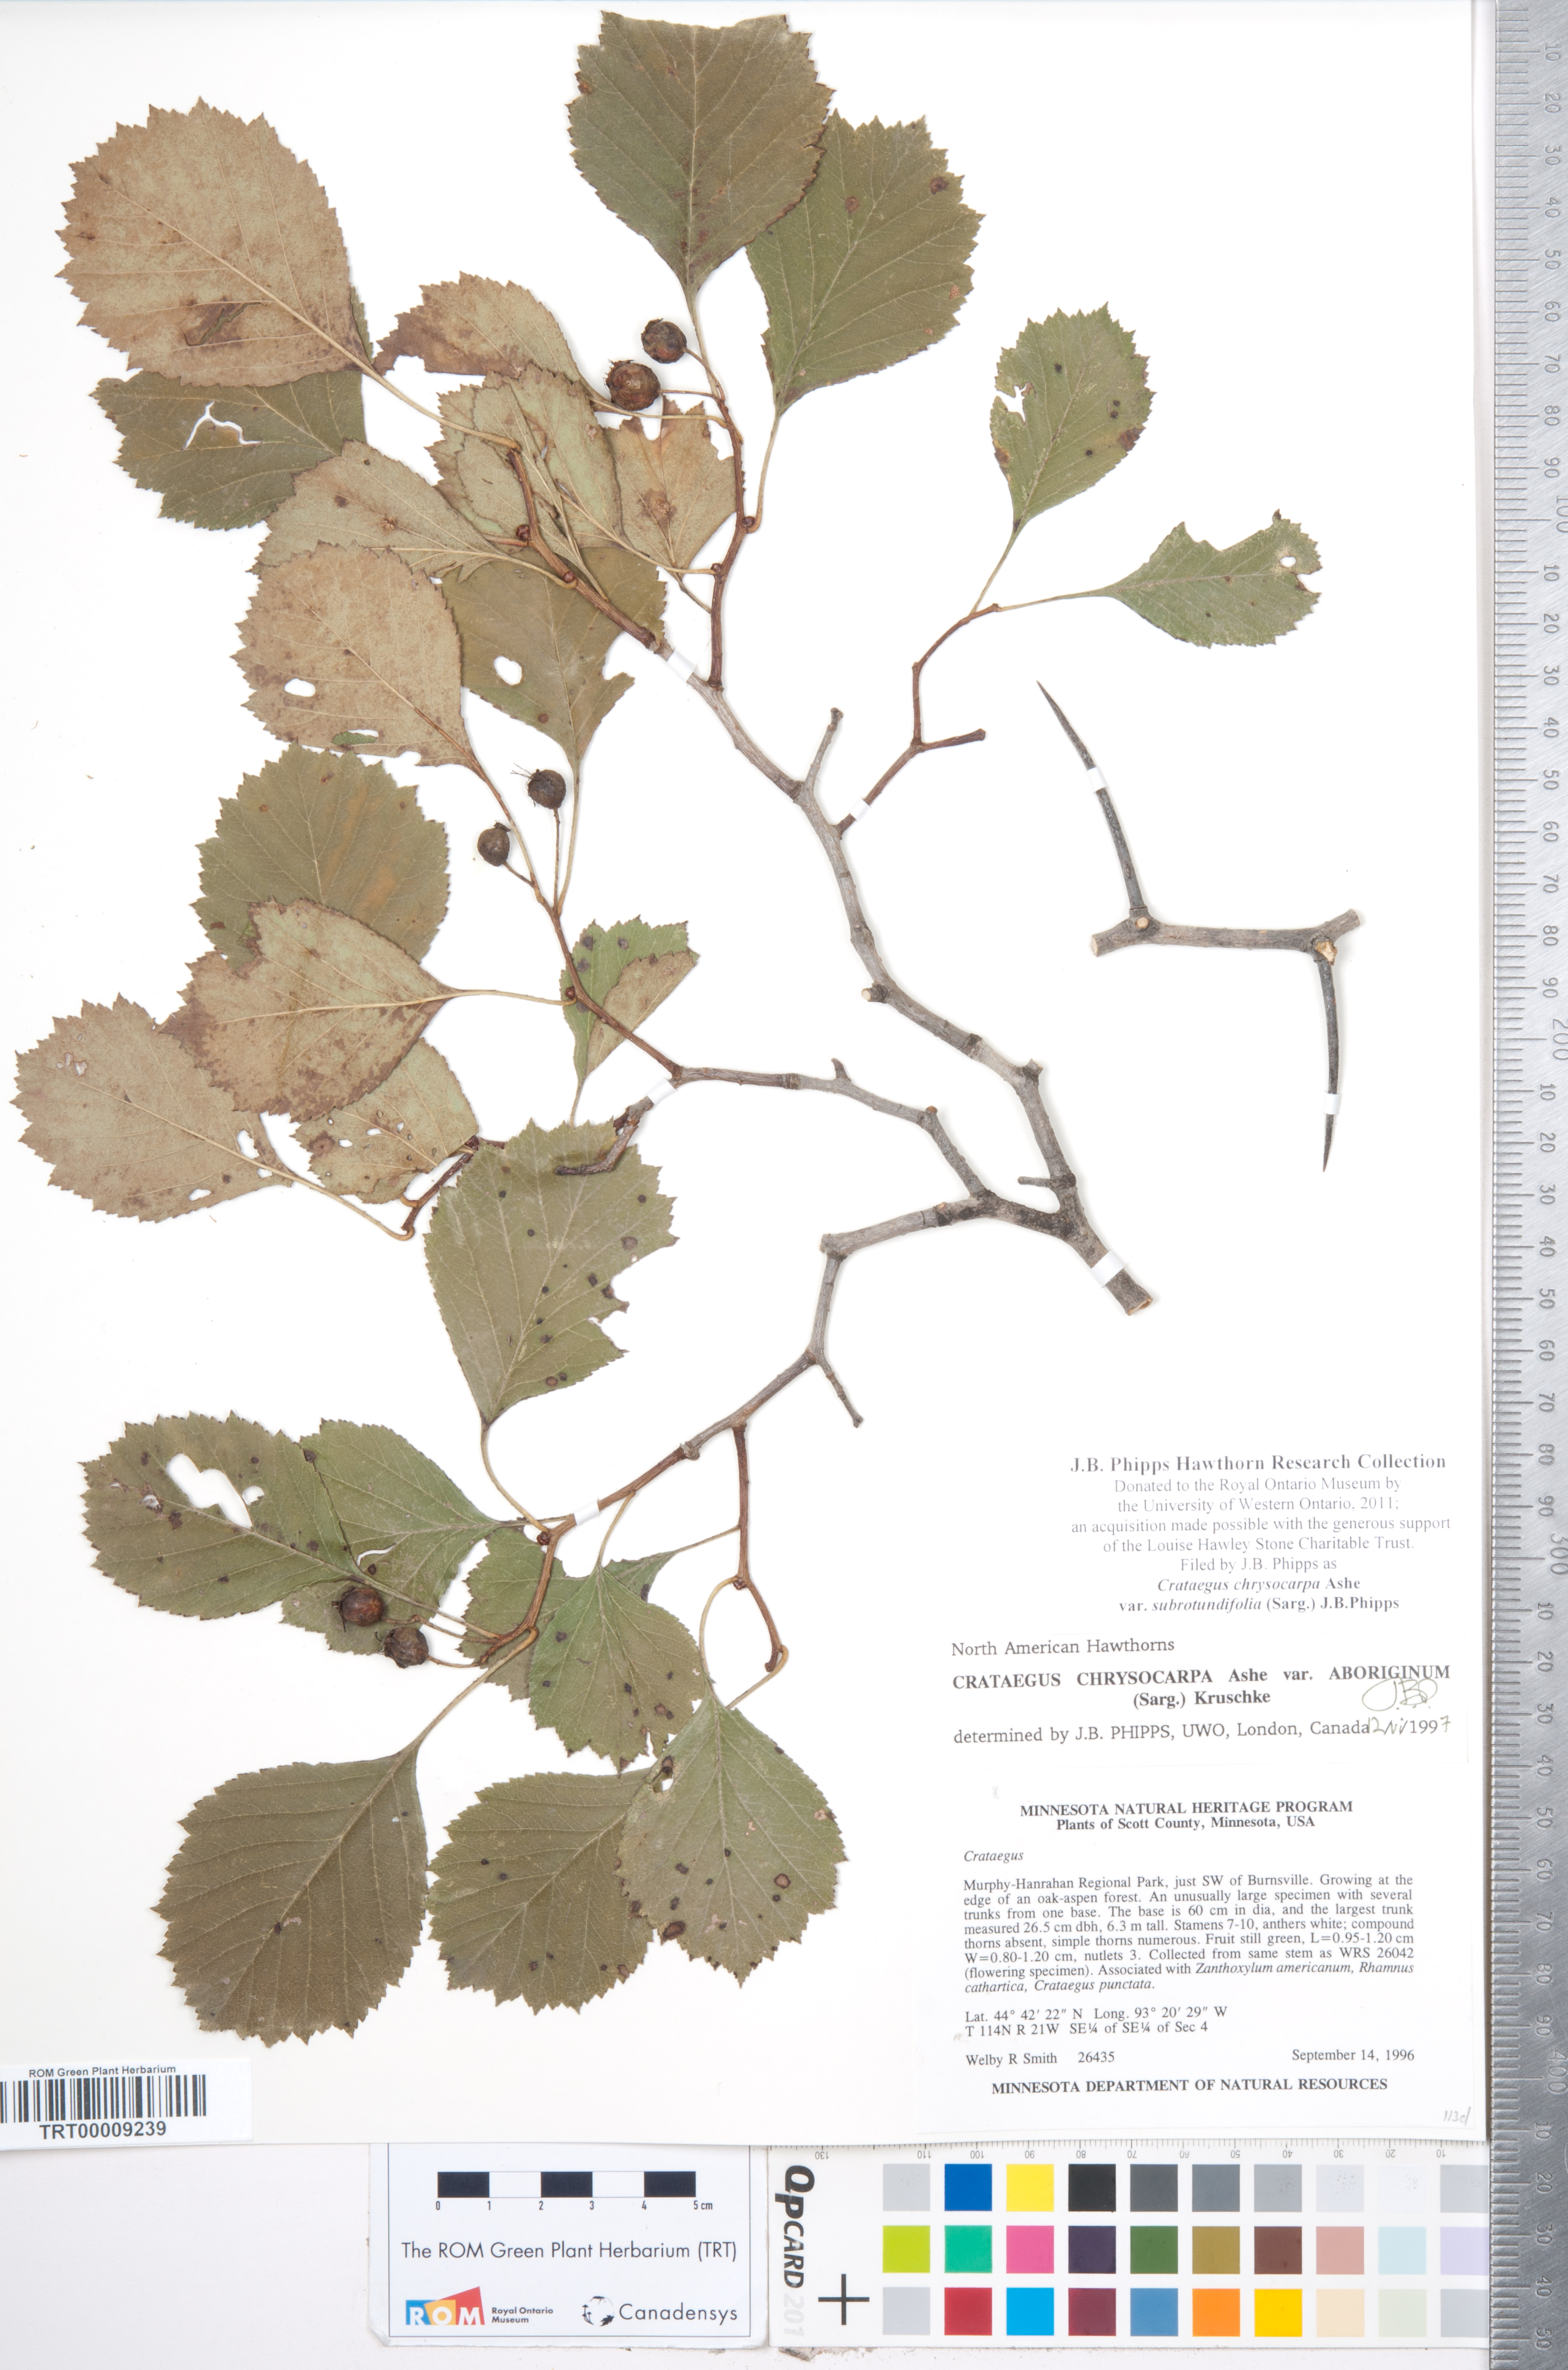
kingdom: Plantae
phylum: Tracheophyta
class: Magnoliopsida
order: Rosales
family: Rosaceae
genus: Crataegus
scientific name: Crataegus chrysocarpa
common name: Fire-berry hawthorn
